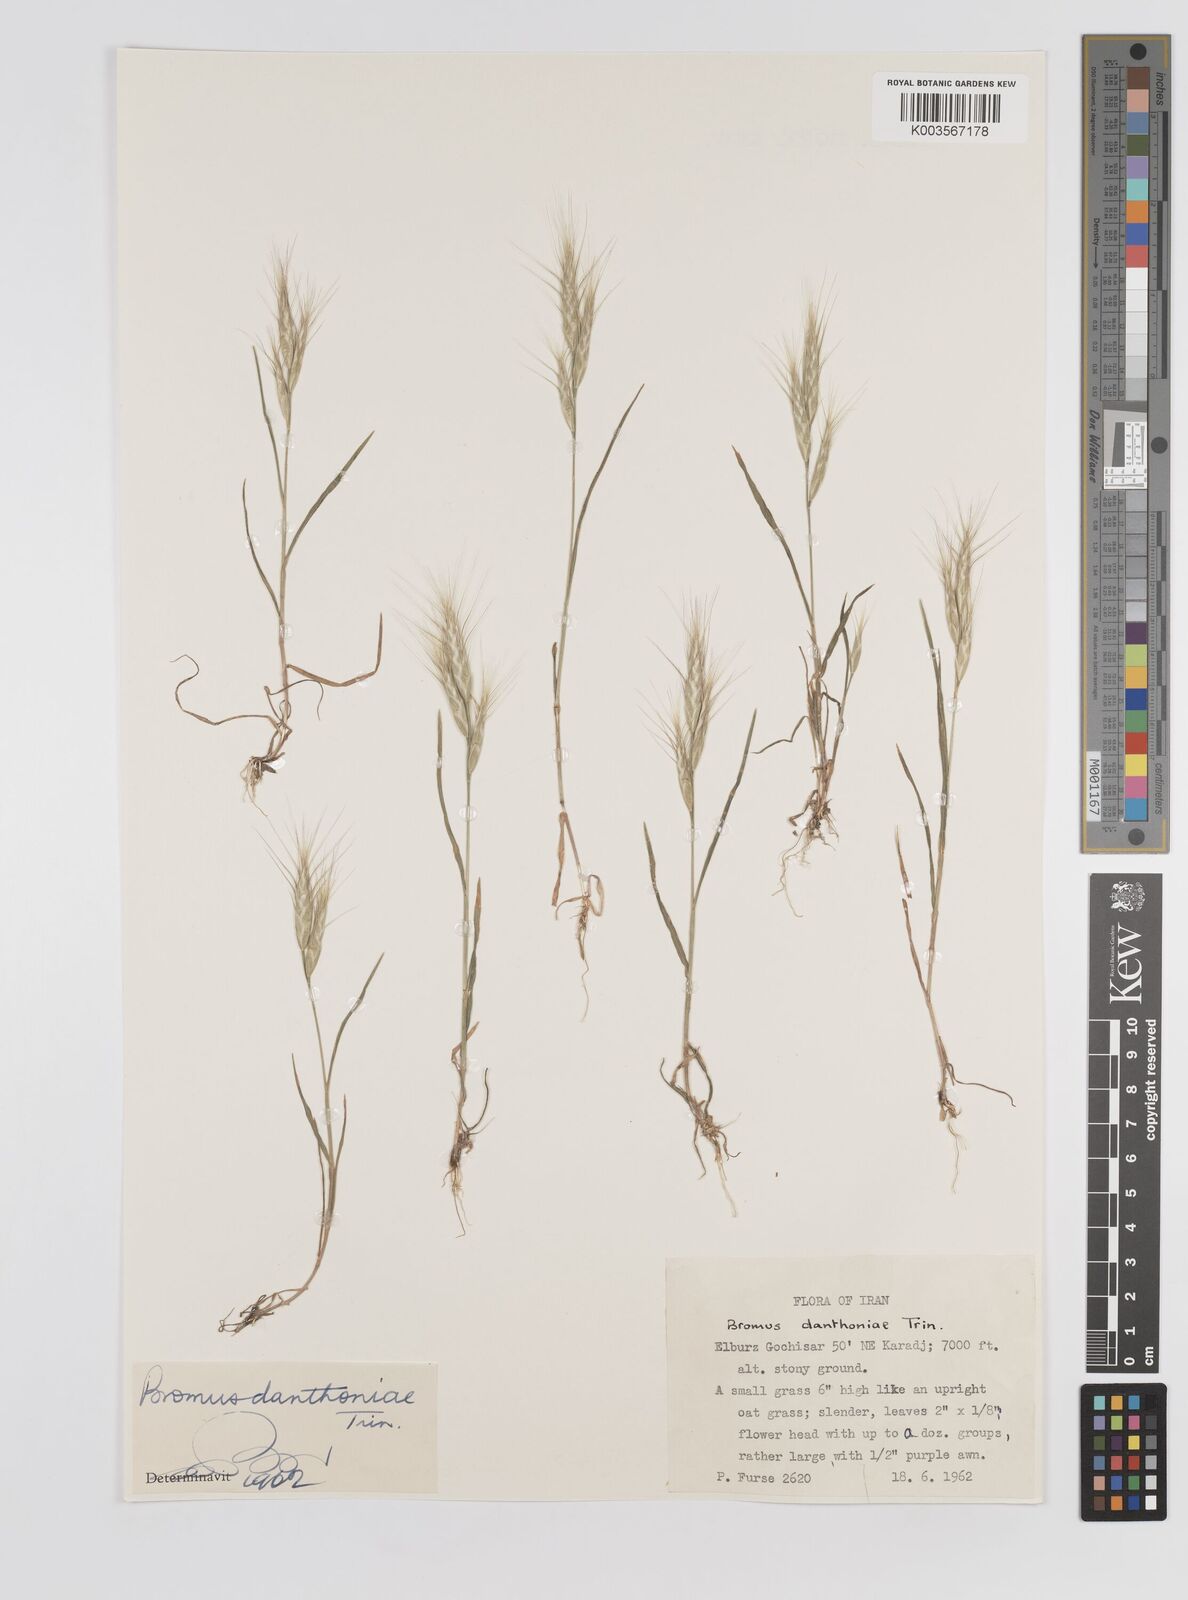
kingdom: Plantae
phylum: Tracheophyta
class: Liliopsida
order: Poales
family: Poaceae
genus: Bromus
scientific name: Bromus danthoniae
